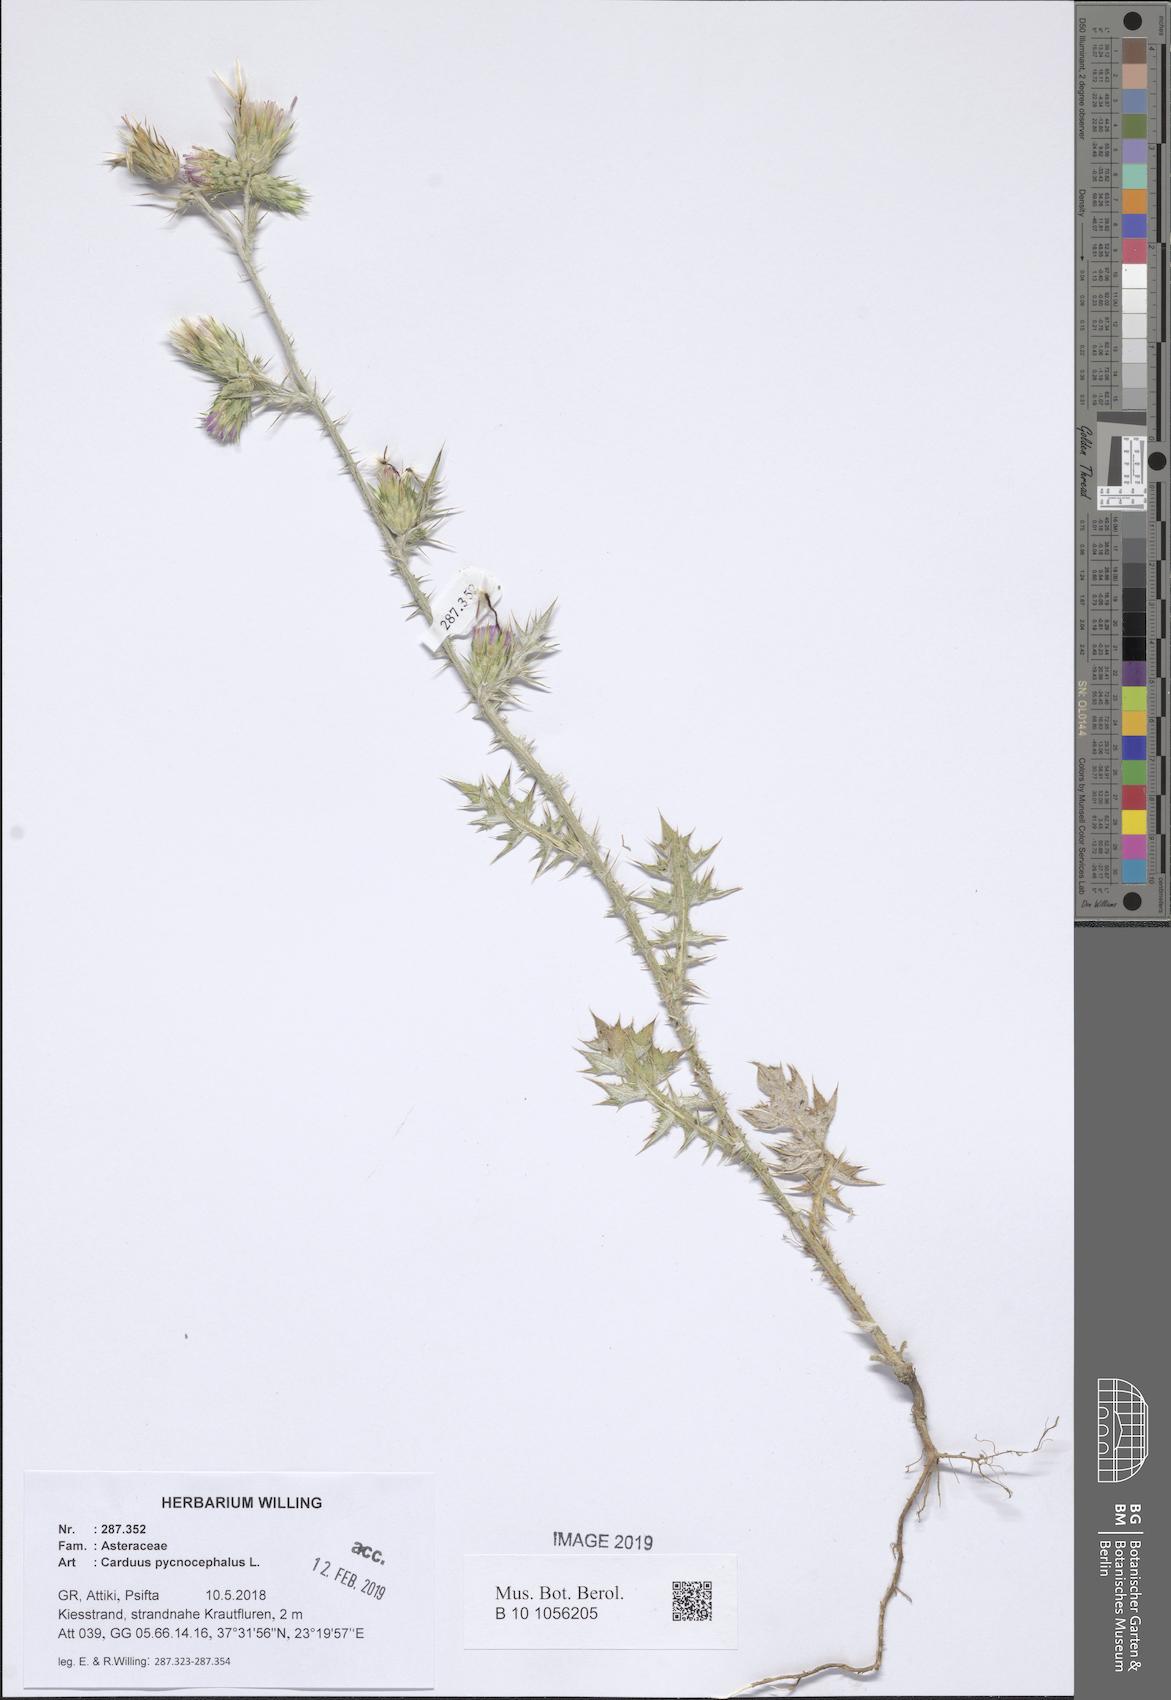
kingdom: Plantae
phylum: Tracheophyta
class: Magnoliopsida
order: Asterales
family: Asteraceae
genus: Carduus
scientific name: Carduus pycnocephalus
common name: Plymouth thistle
